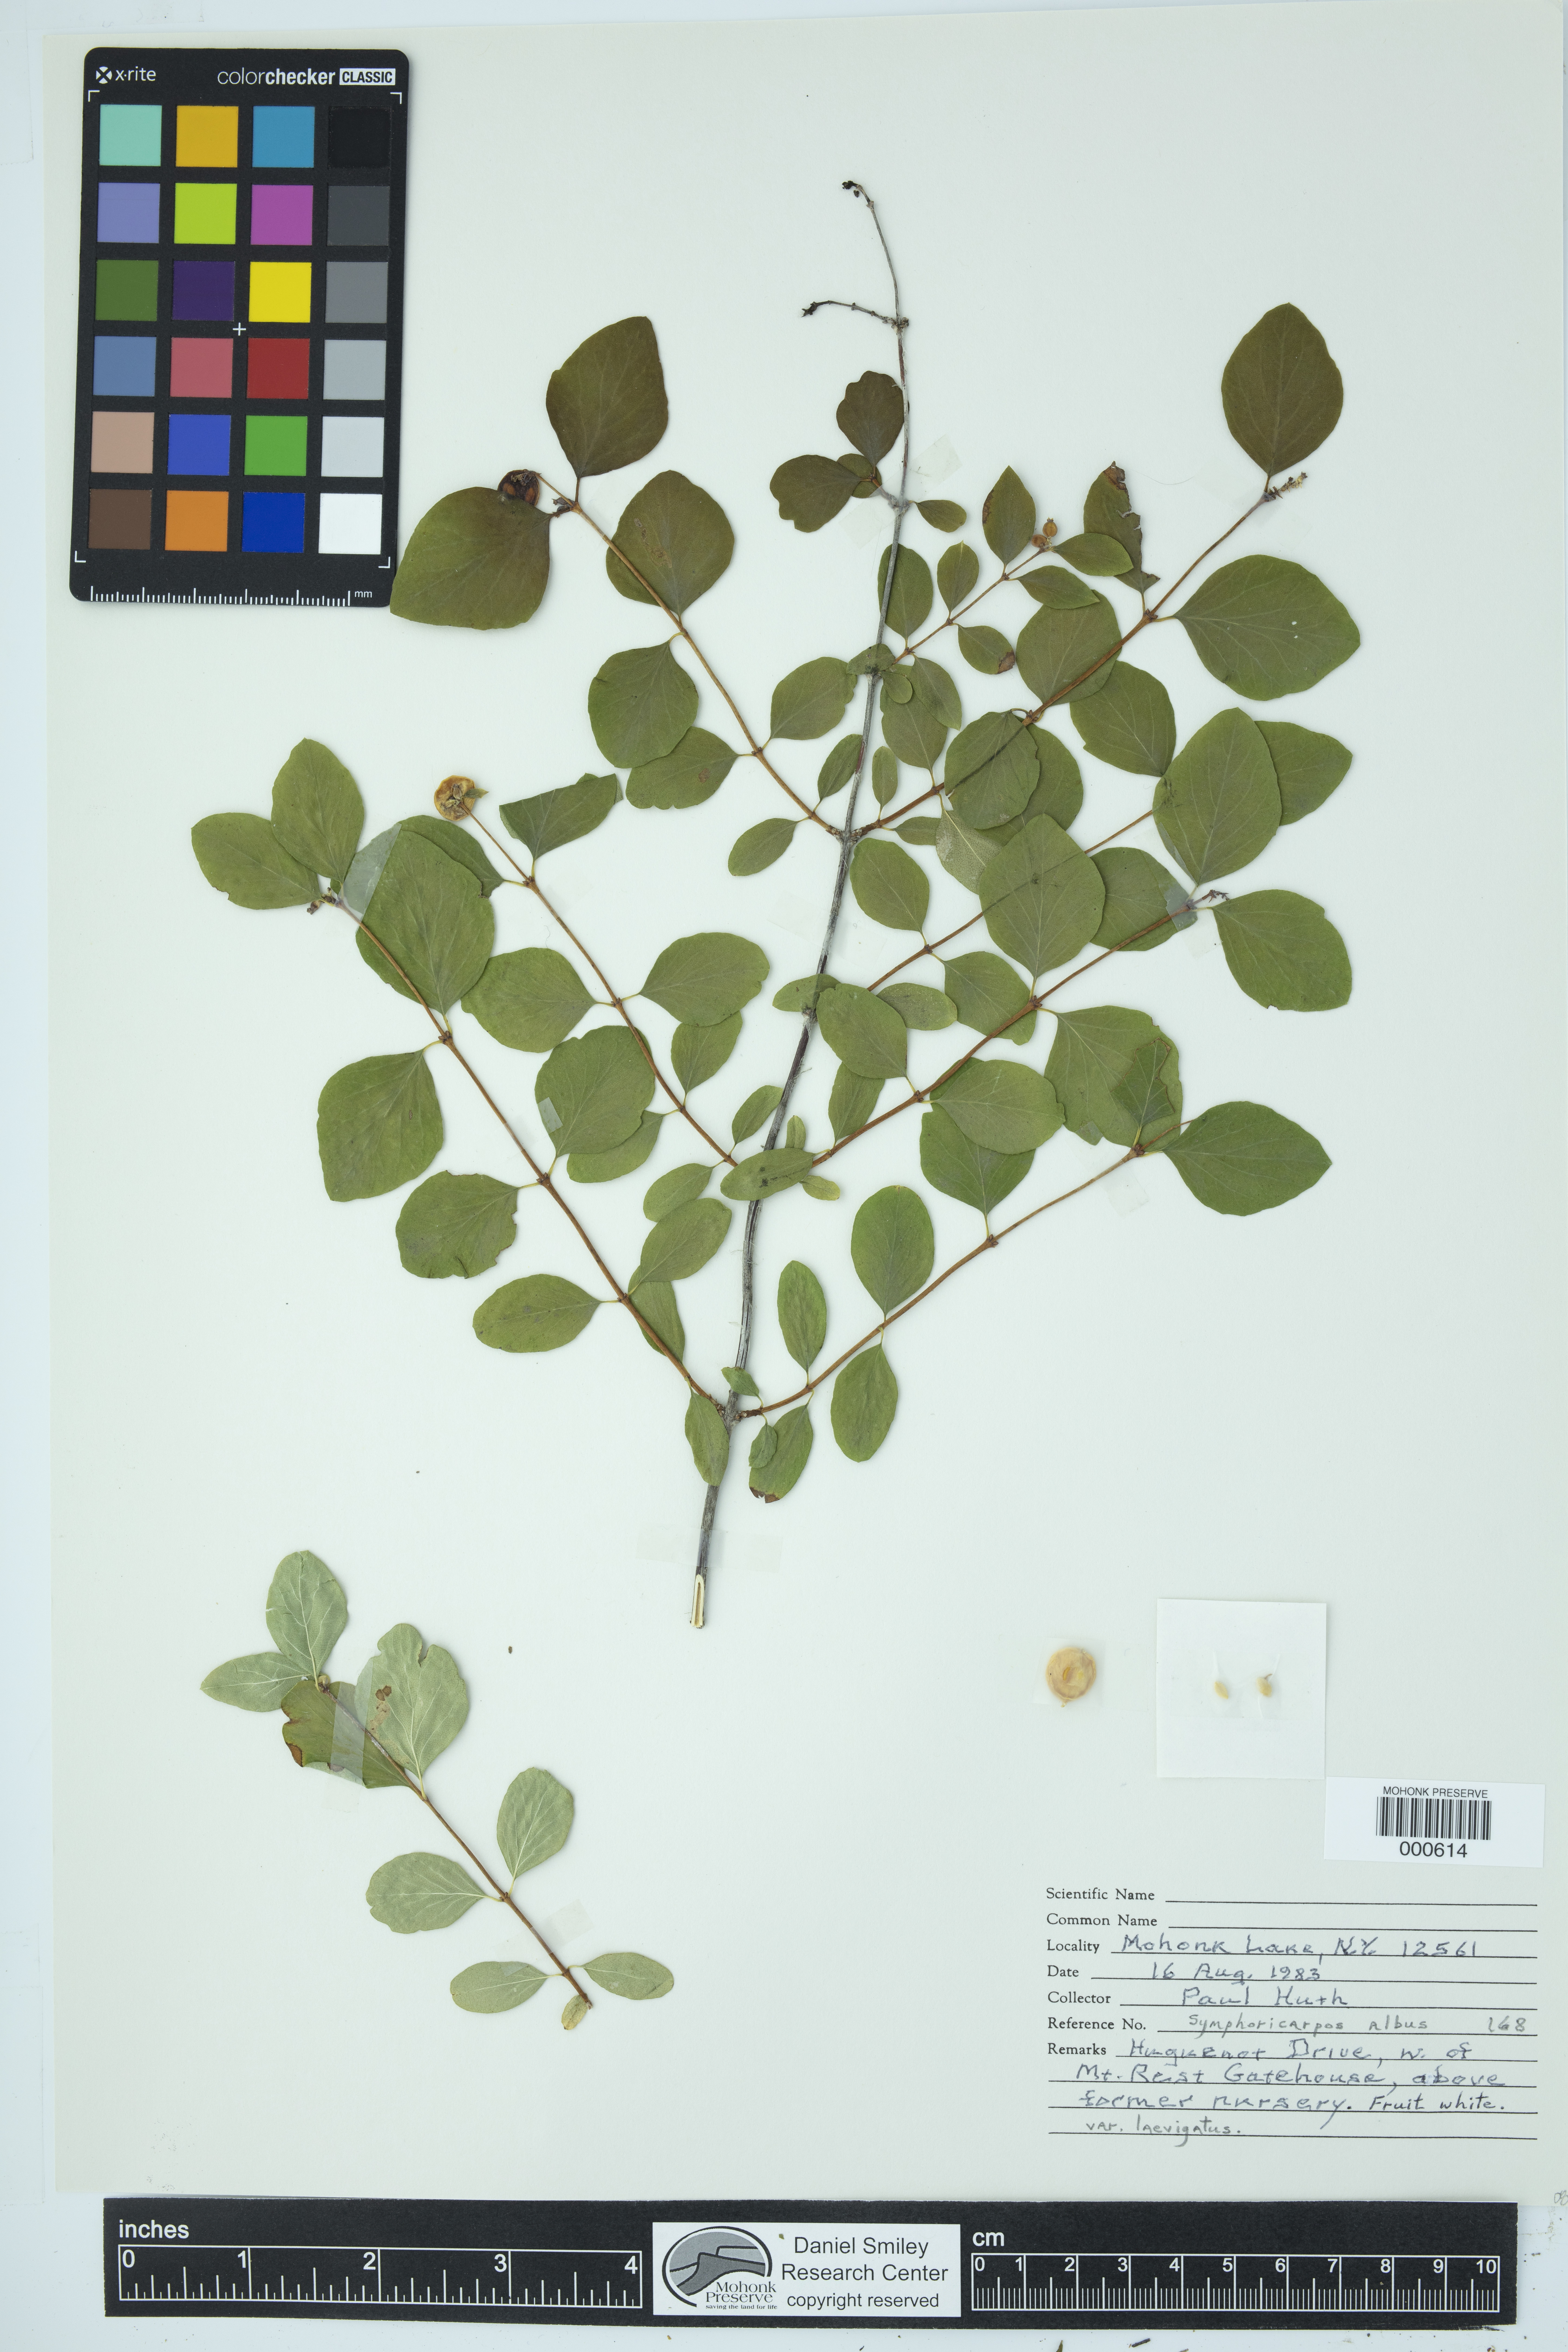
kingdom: Plantae
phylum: Tracheophyta
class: Magnoliopsida
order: Dipsacales
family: Caprifoliaceae
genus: Symphoricarpos
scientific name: Symphoricarpos albus
